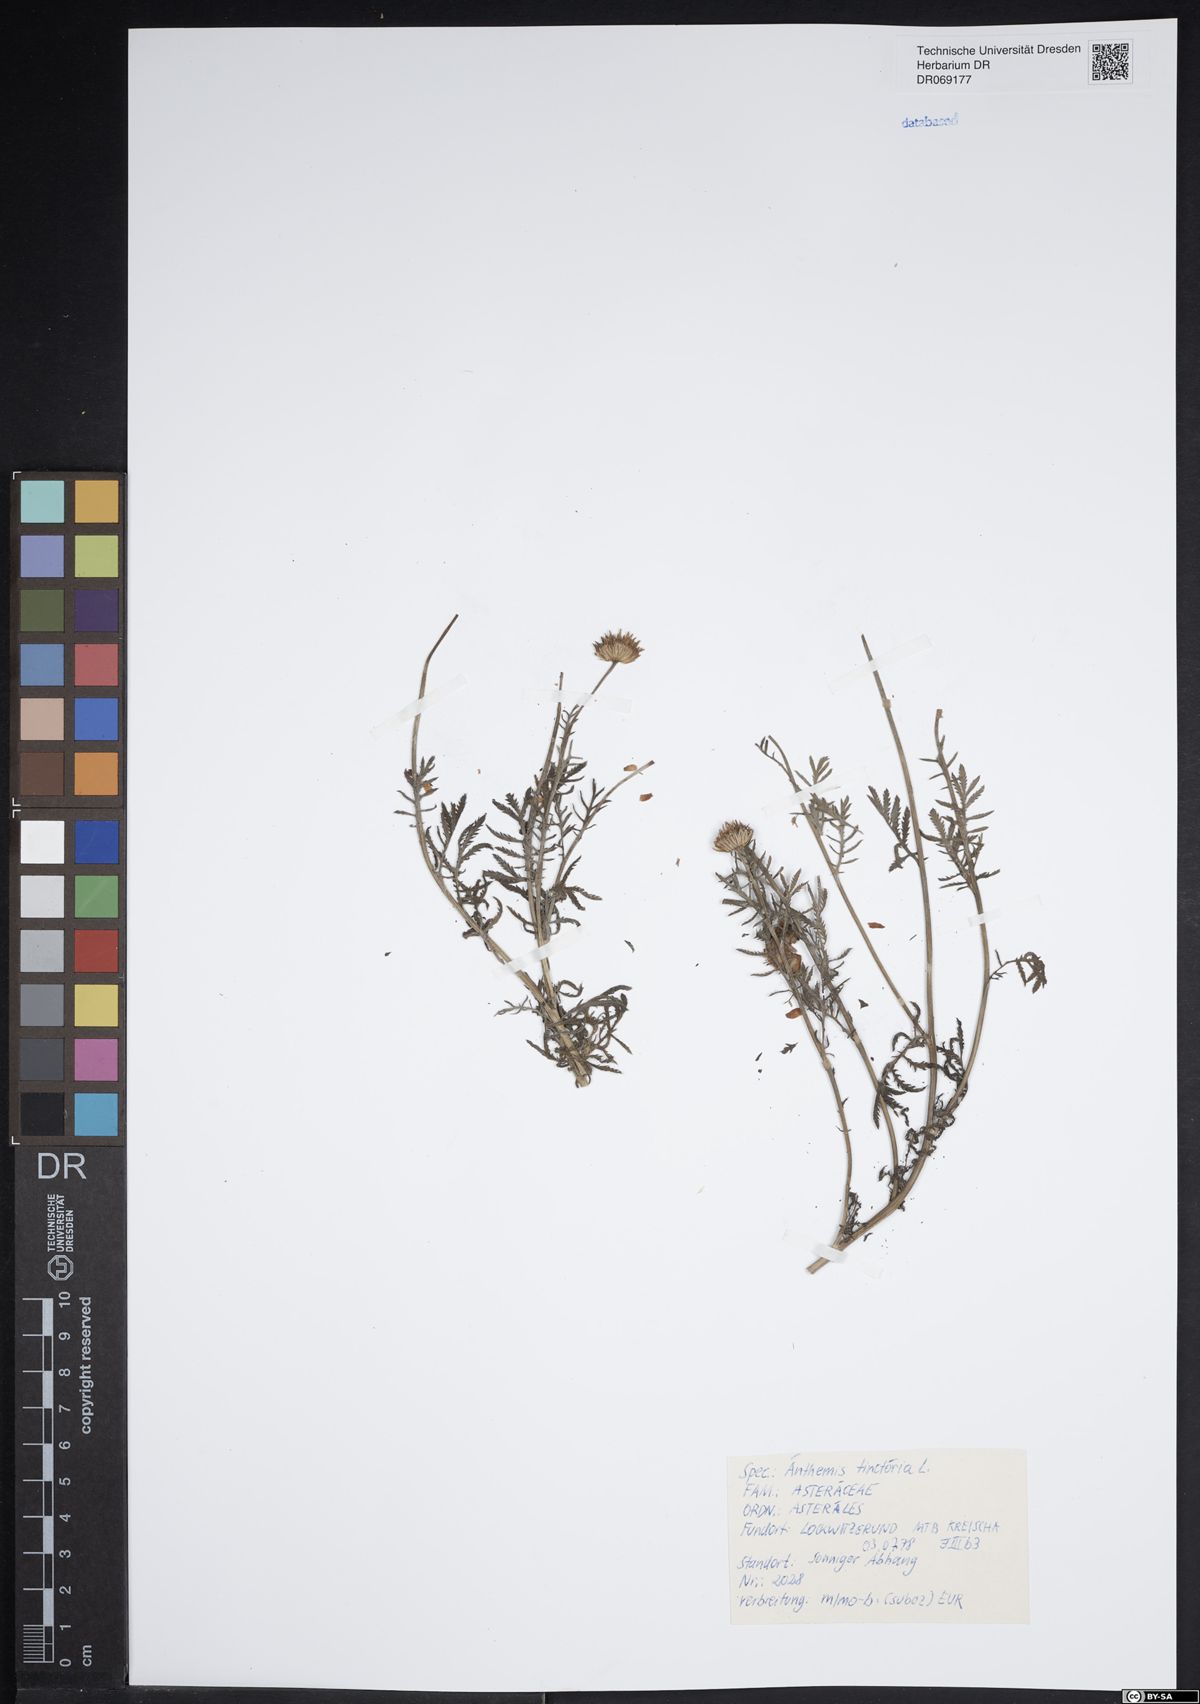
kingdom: Plantae
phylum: Tracheophyta
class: Magnoliopsida
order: Asterales
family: Asteraceae
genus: Cota
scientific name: Cota tinctoria
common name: Golden chamomile
